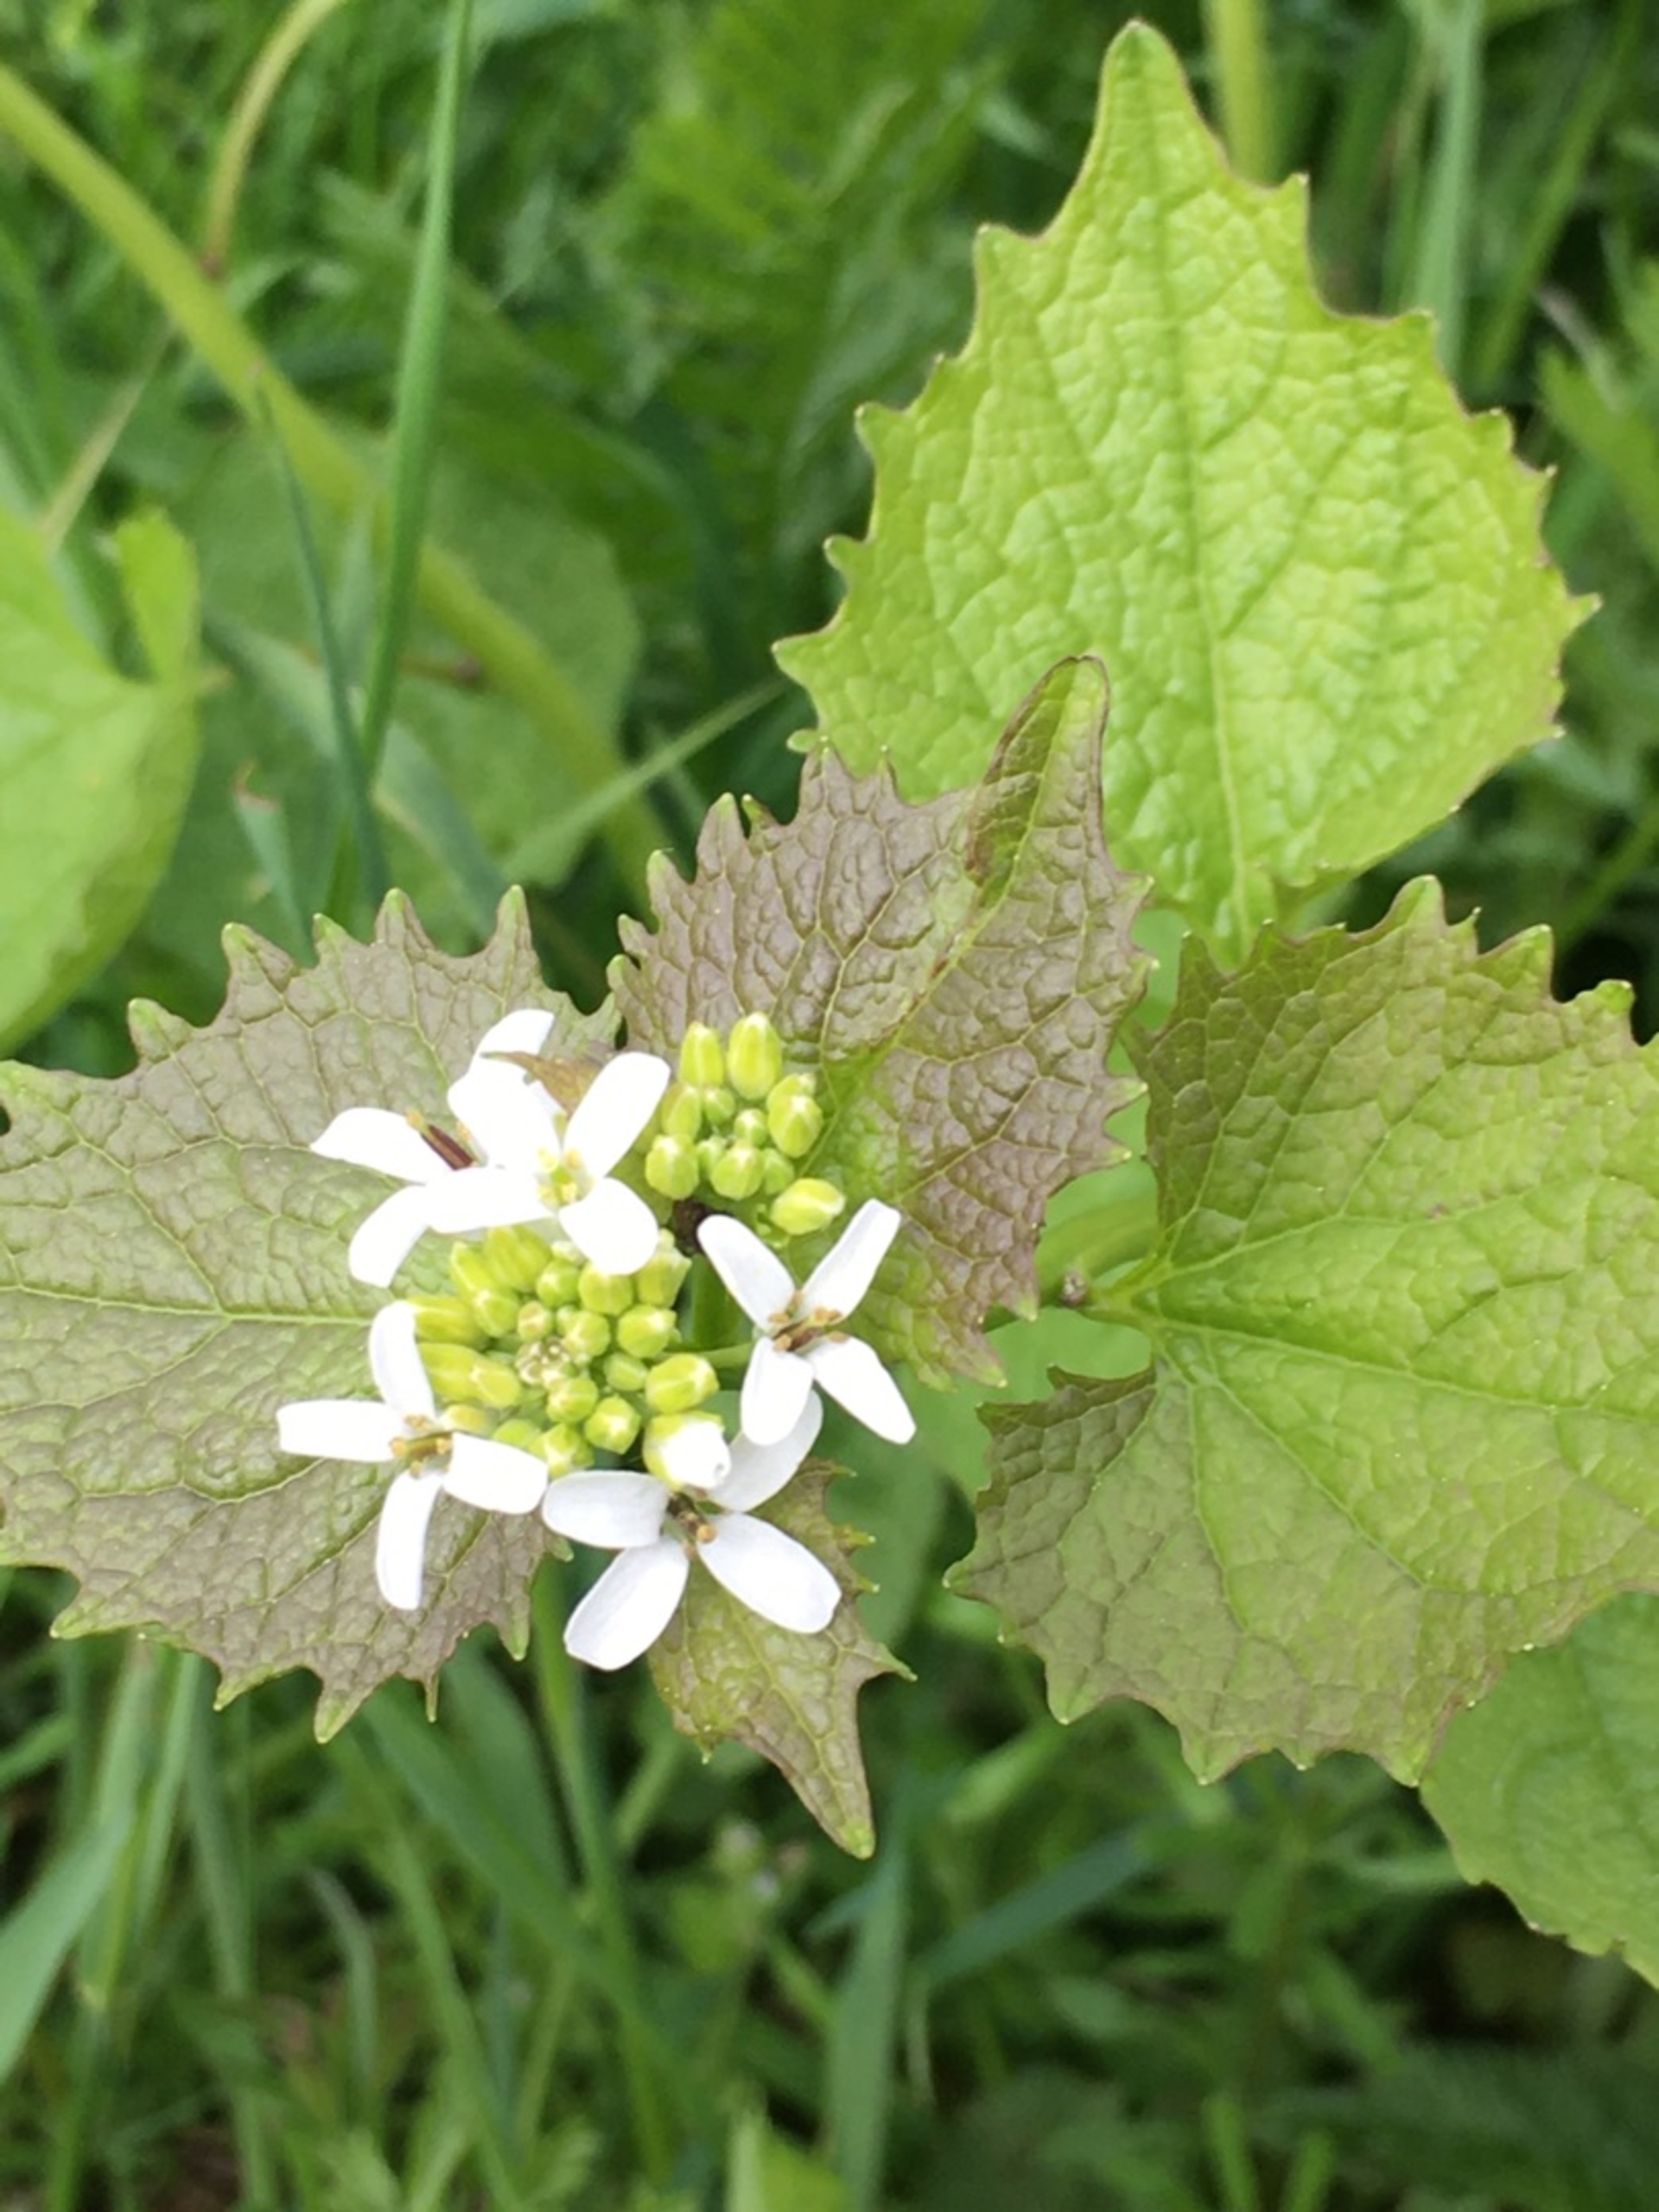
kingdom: Plantae
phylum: Tracheophyta
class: Magnoliopsida
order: Brassicales
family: Brassicaceae
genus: Alliaria
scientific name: Alliaria petiolata
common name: Løgkarse
